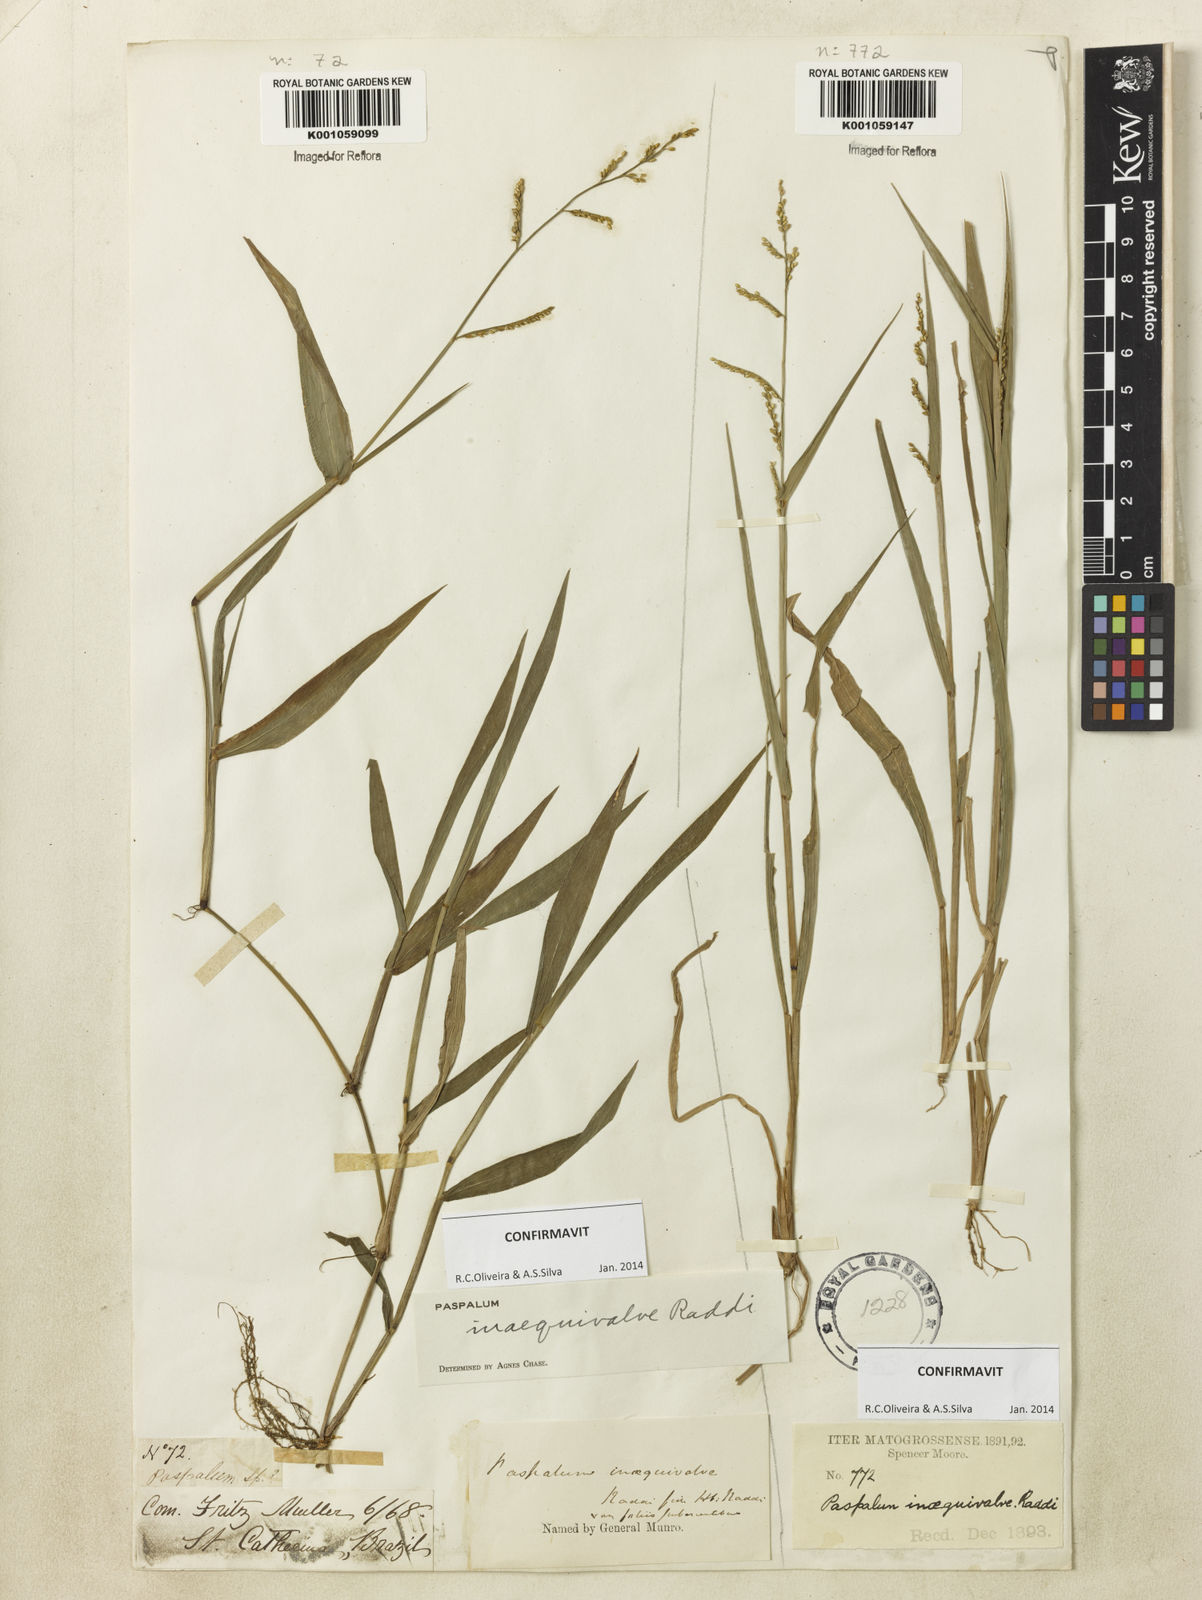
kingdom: Plantae
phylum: Tracheophyta
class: Liliopsida
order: Poales
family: Poaceae
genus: Paspalum
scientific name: Paspalum inaequivalve
